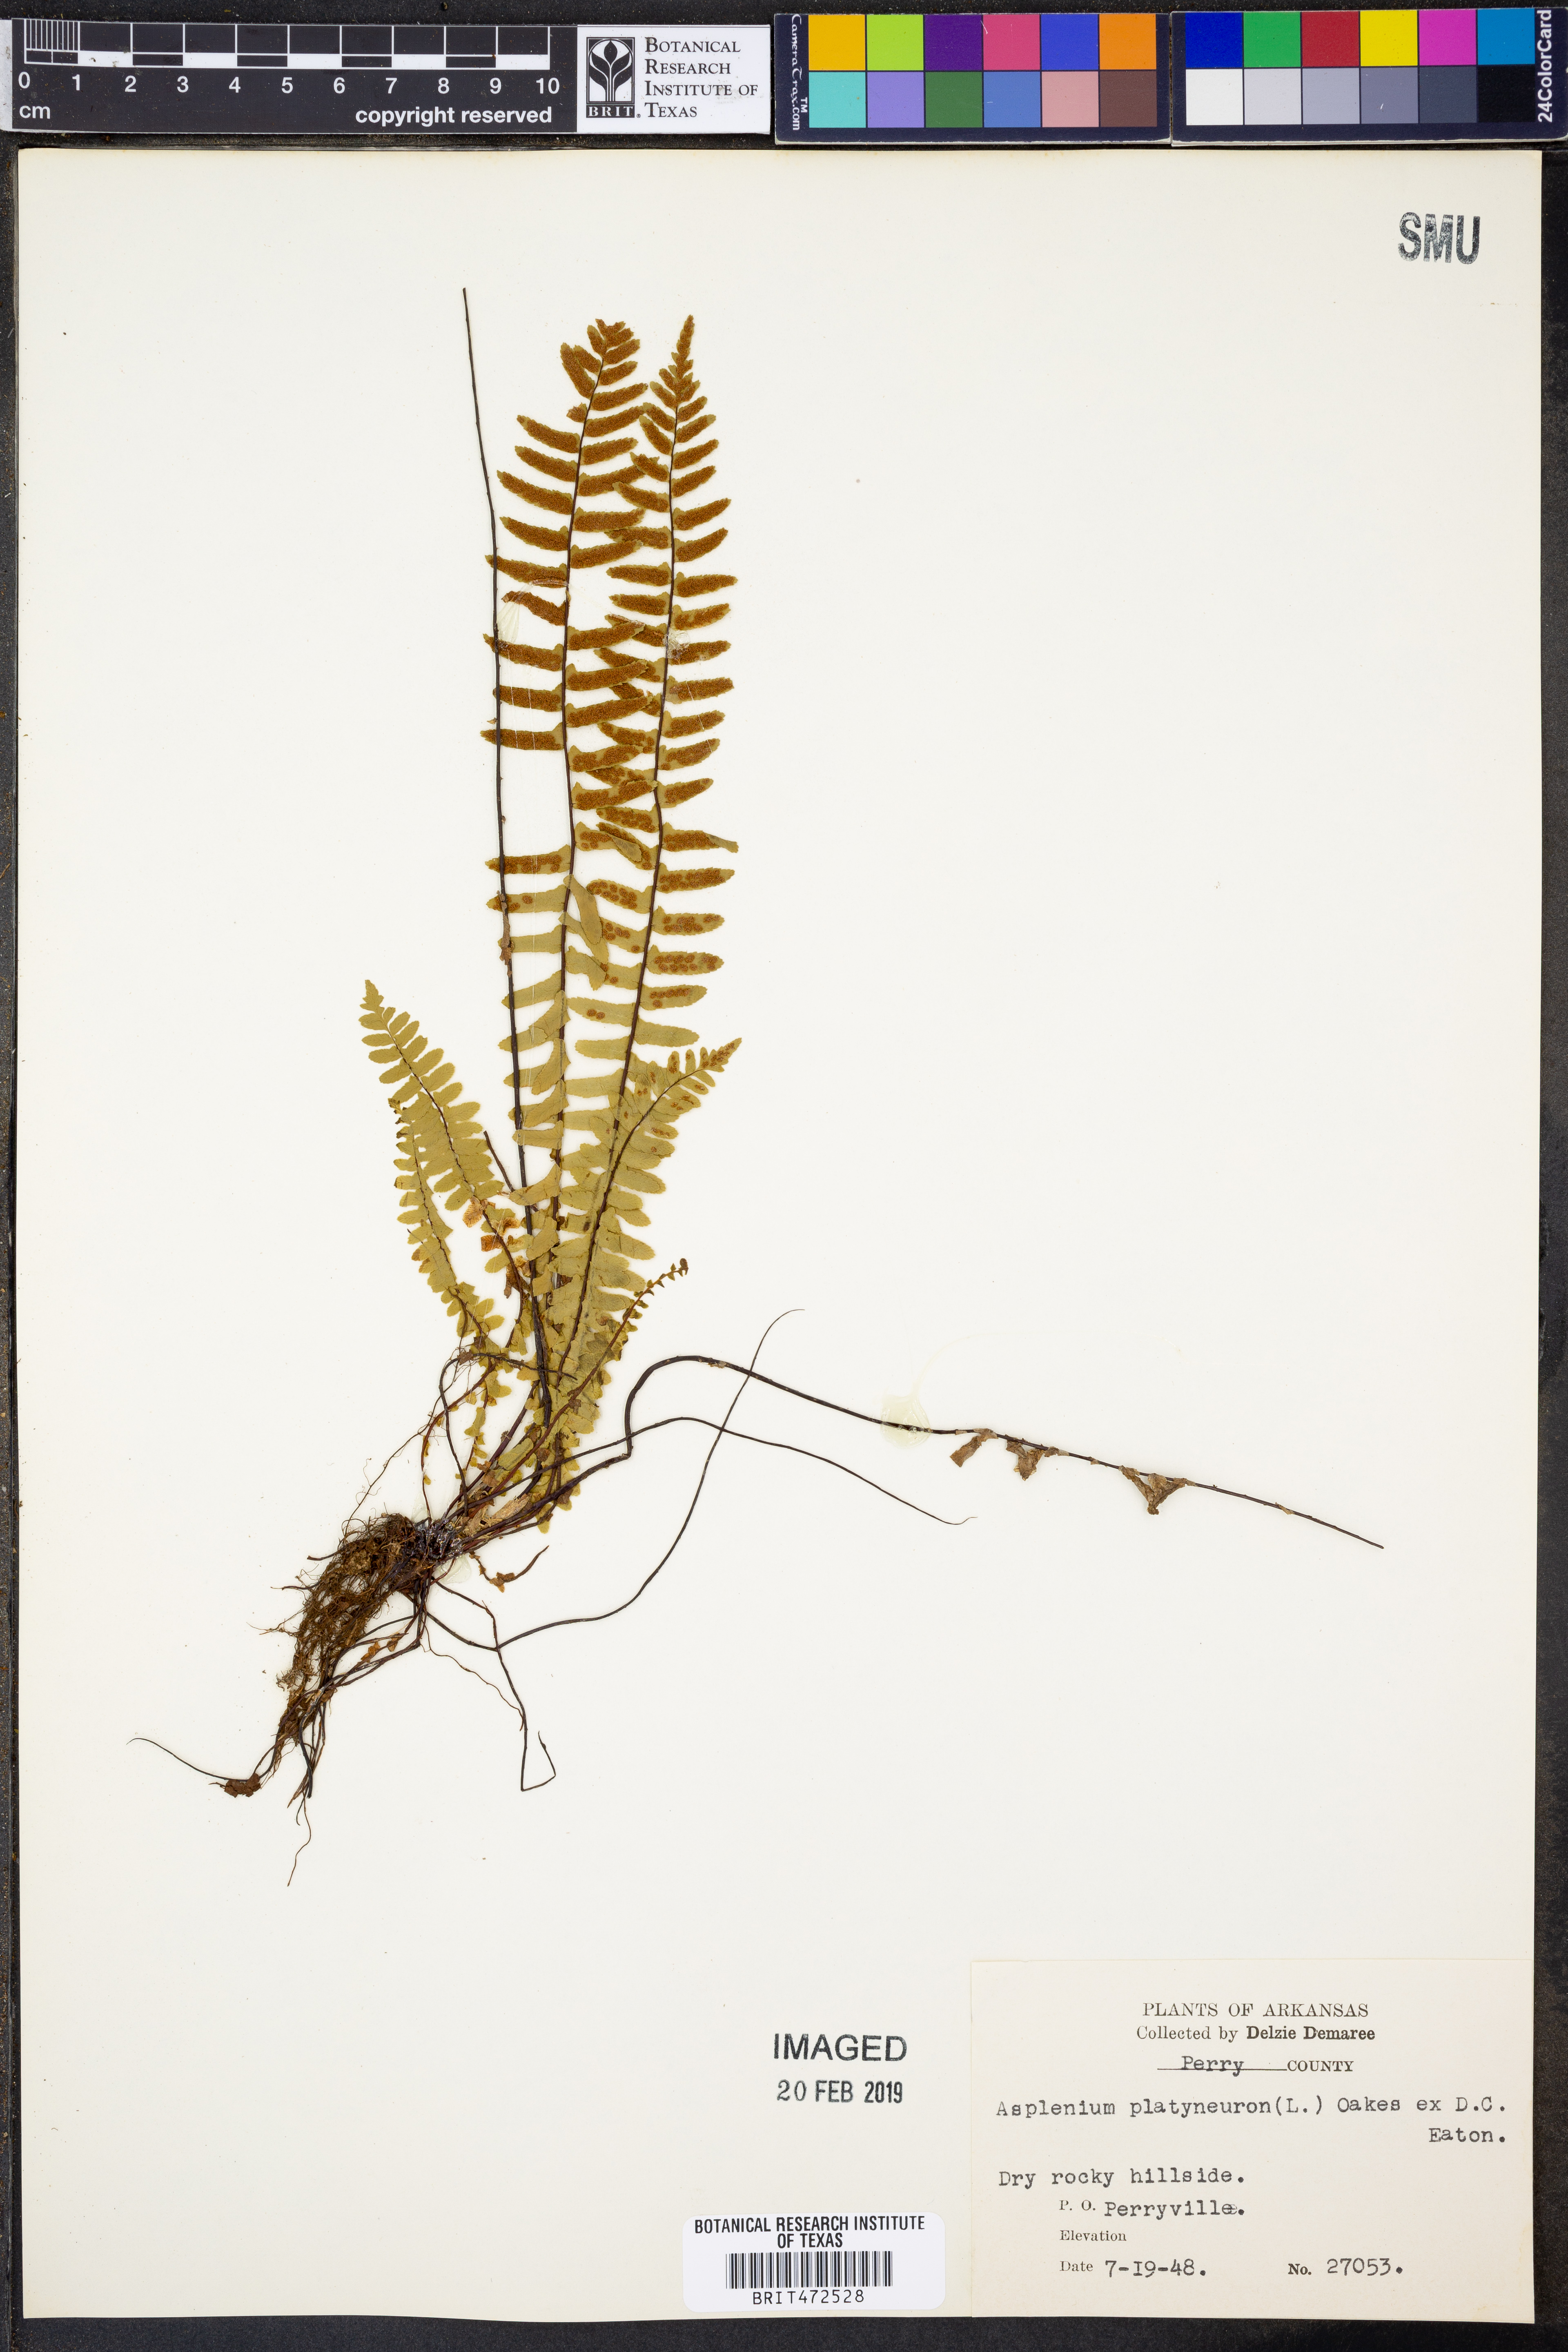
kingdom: Plantae
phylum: Tracheophyta
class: Polypodiopsida
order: Polypodiales
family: Aspleniaceae
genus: Asplenium
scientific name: Asplenium platyneuron
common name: Ebony spleenwort
